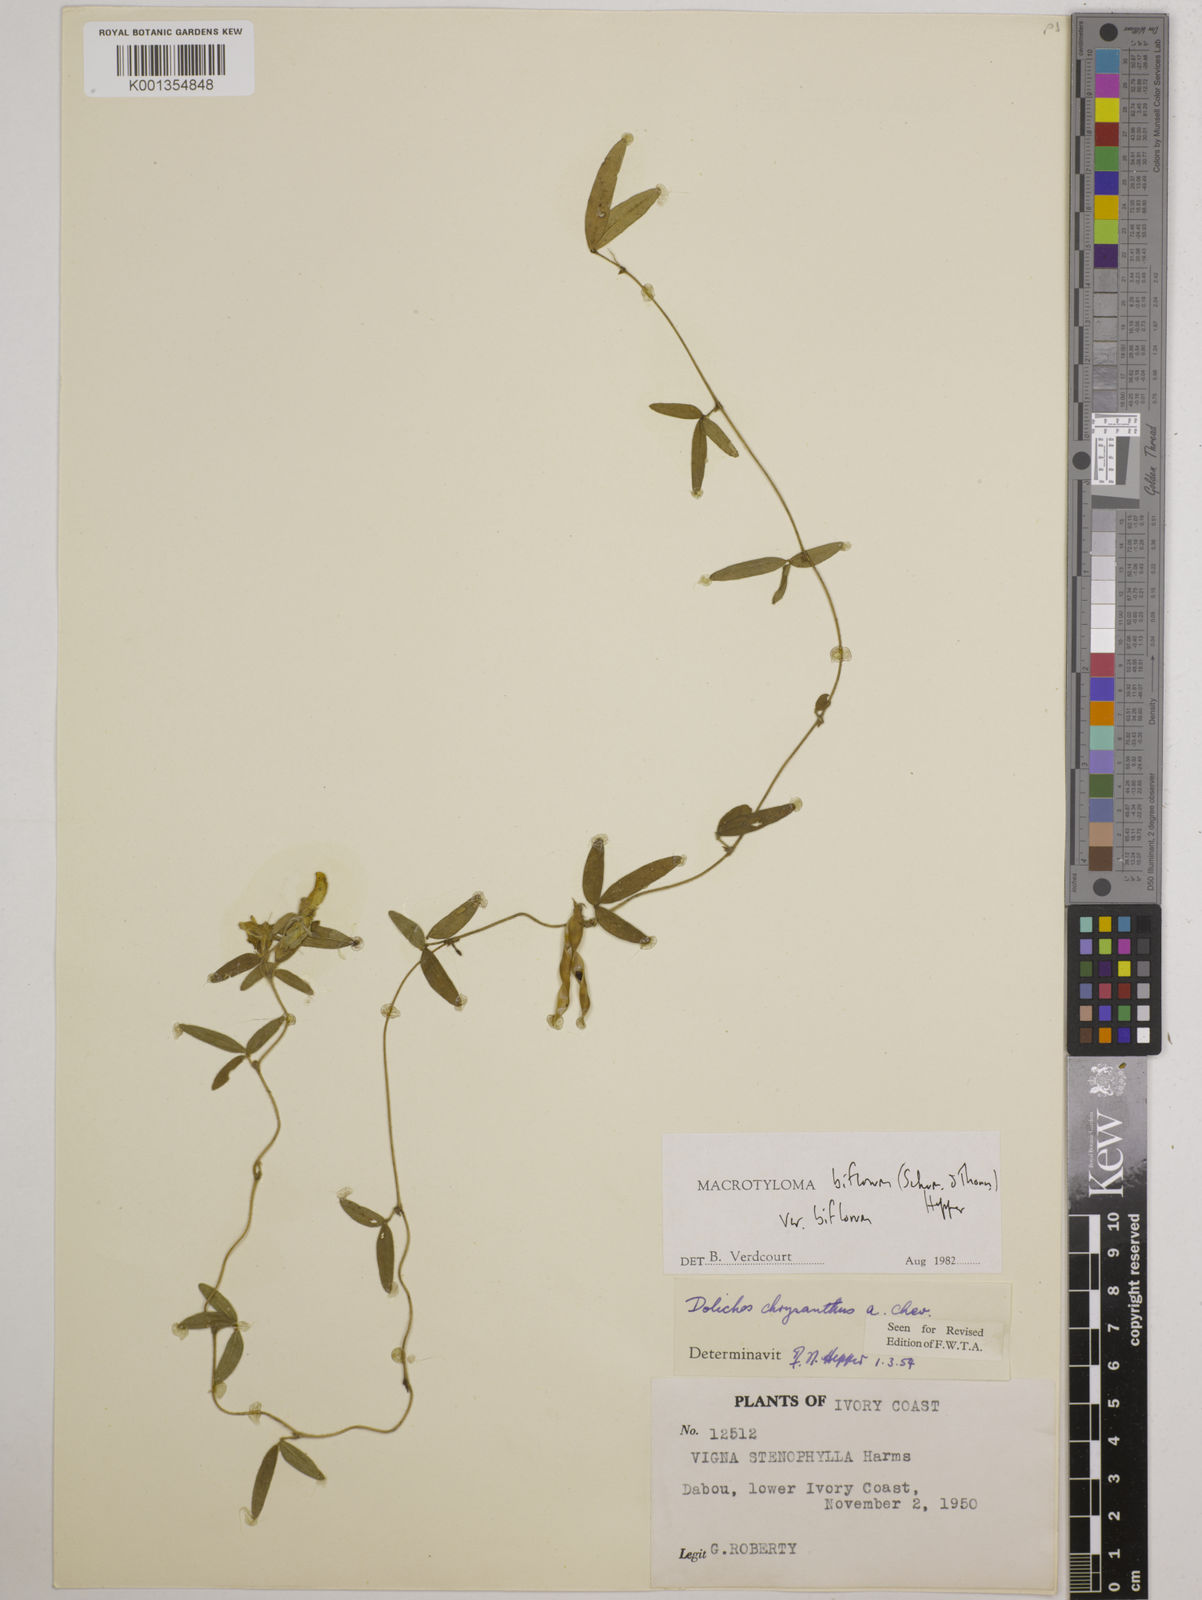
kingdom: Plantae
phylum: Tracheophyta
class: Magnoliopsida
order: Fabales
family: Fabaceae
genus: Macrotyloma
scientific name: Macrotyloma biflorum
